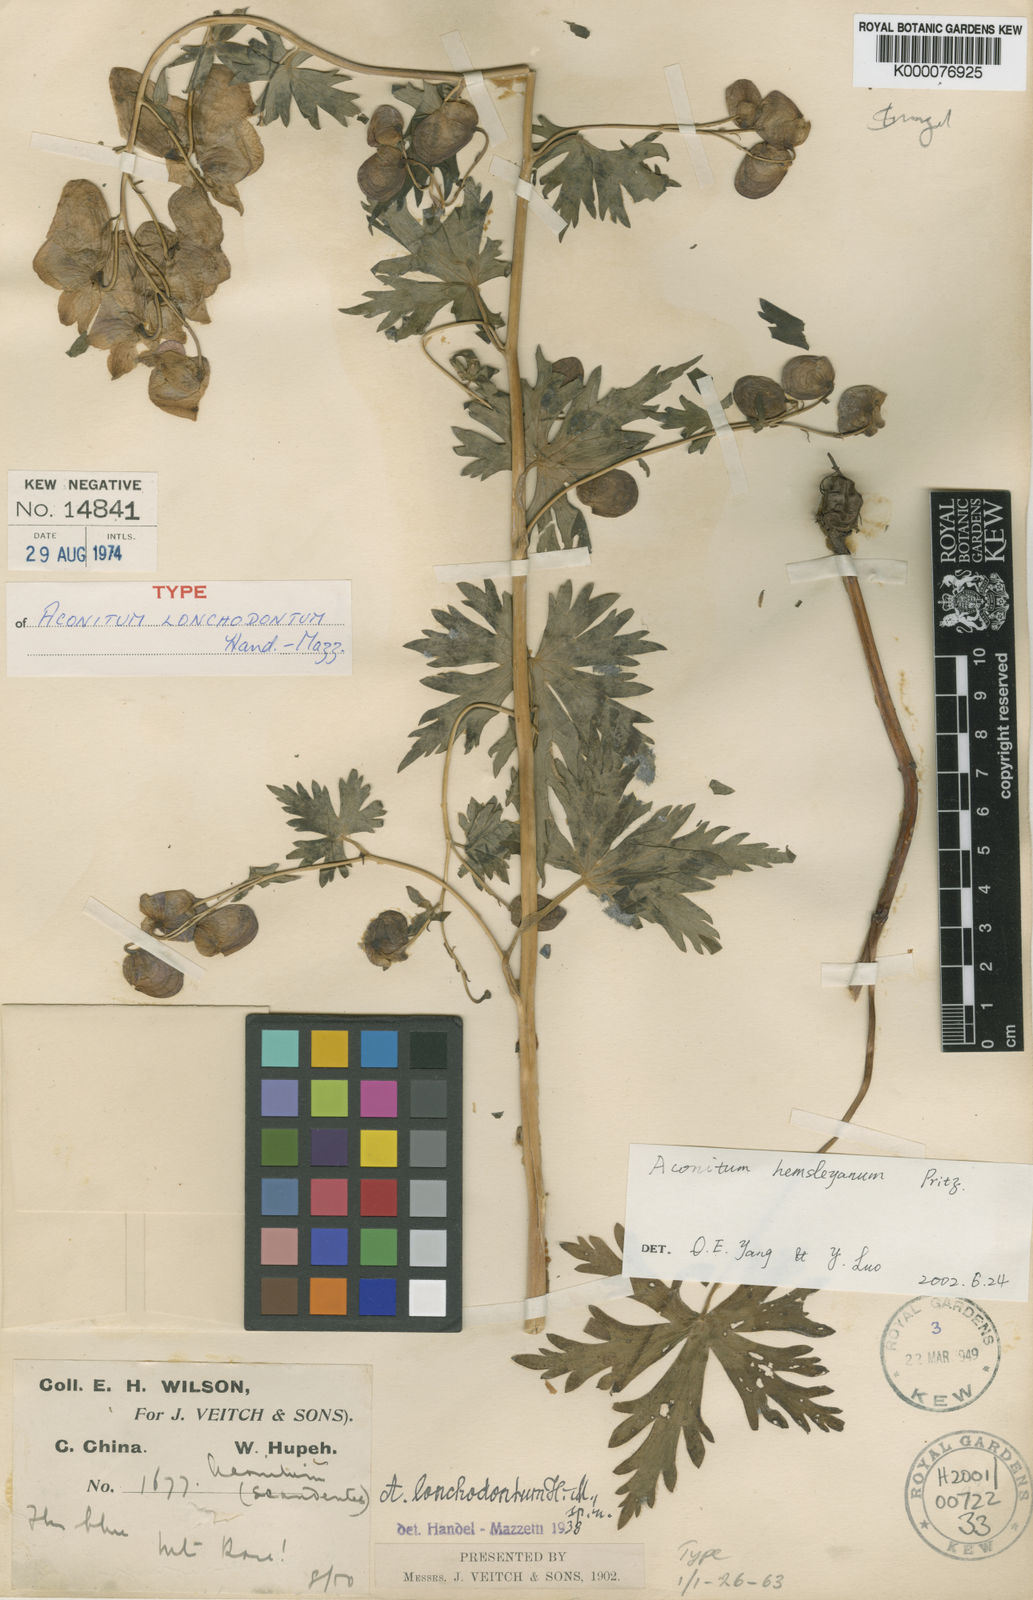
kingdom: Plantae
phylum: Tracheophyta
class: Magnoliopsida
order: Ranunculales
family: Ranunculaceae
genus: Aconitum
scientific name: Aconitum
